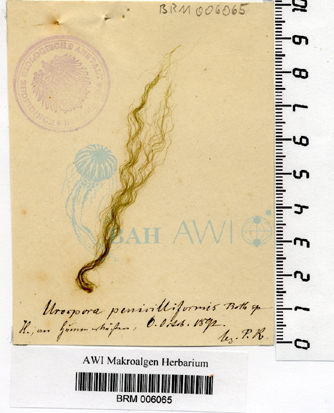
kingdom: Plantae
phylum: Chlorophyta
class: Ulvophyceae
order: Ulotrichales
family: Ulotrichaceae
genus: Urospora
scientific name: Urospora penicilliformis
